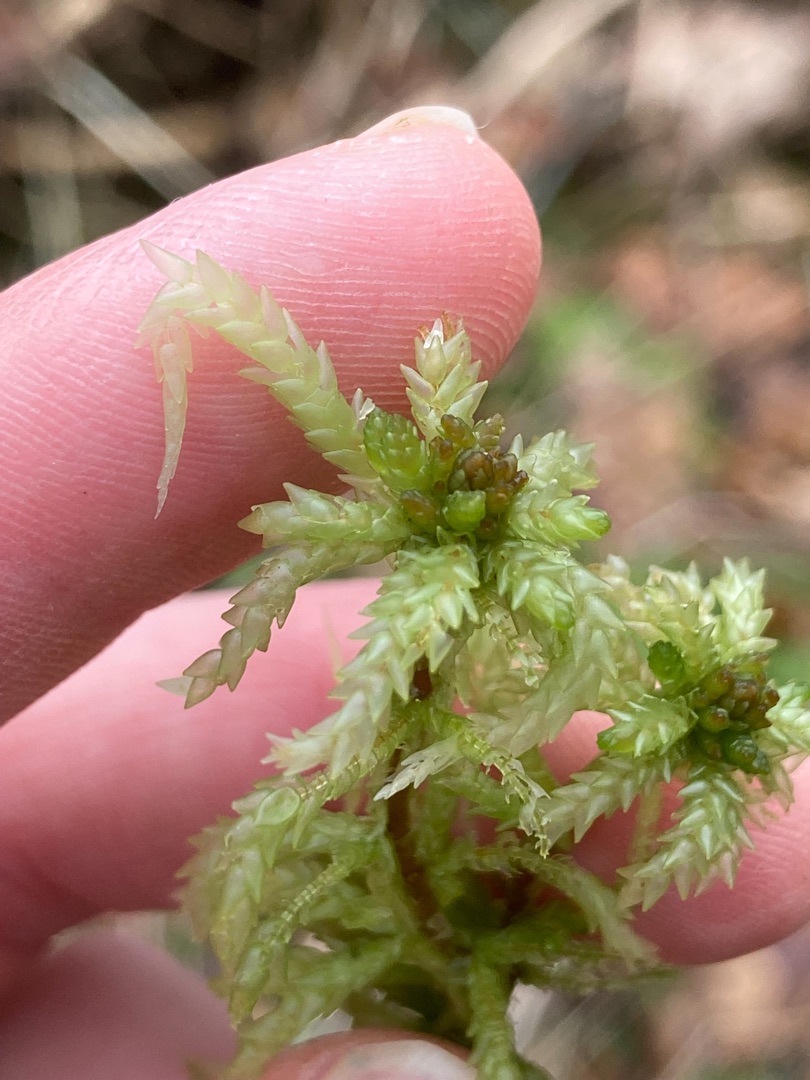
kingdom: Plantae
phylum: Bryophyta
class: Sphagnopsida
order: Sphagnales
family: Sphagnaceae
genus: Sphagnum
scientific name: Sphagnum palustre
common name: Almindelig tørvemos
